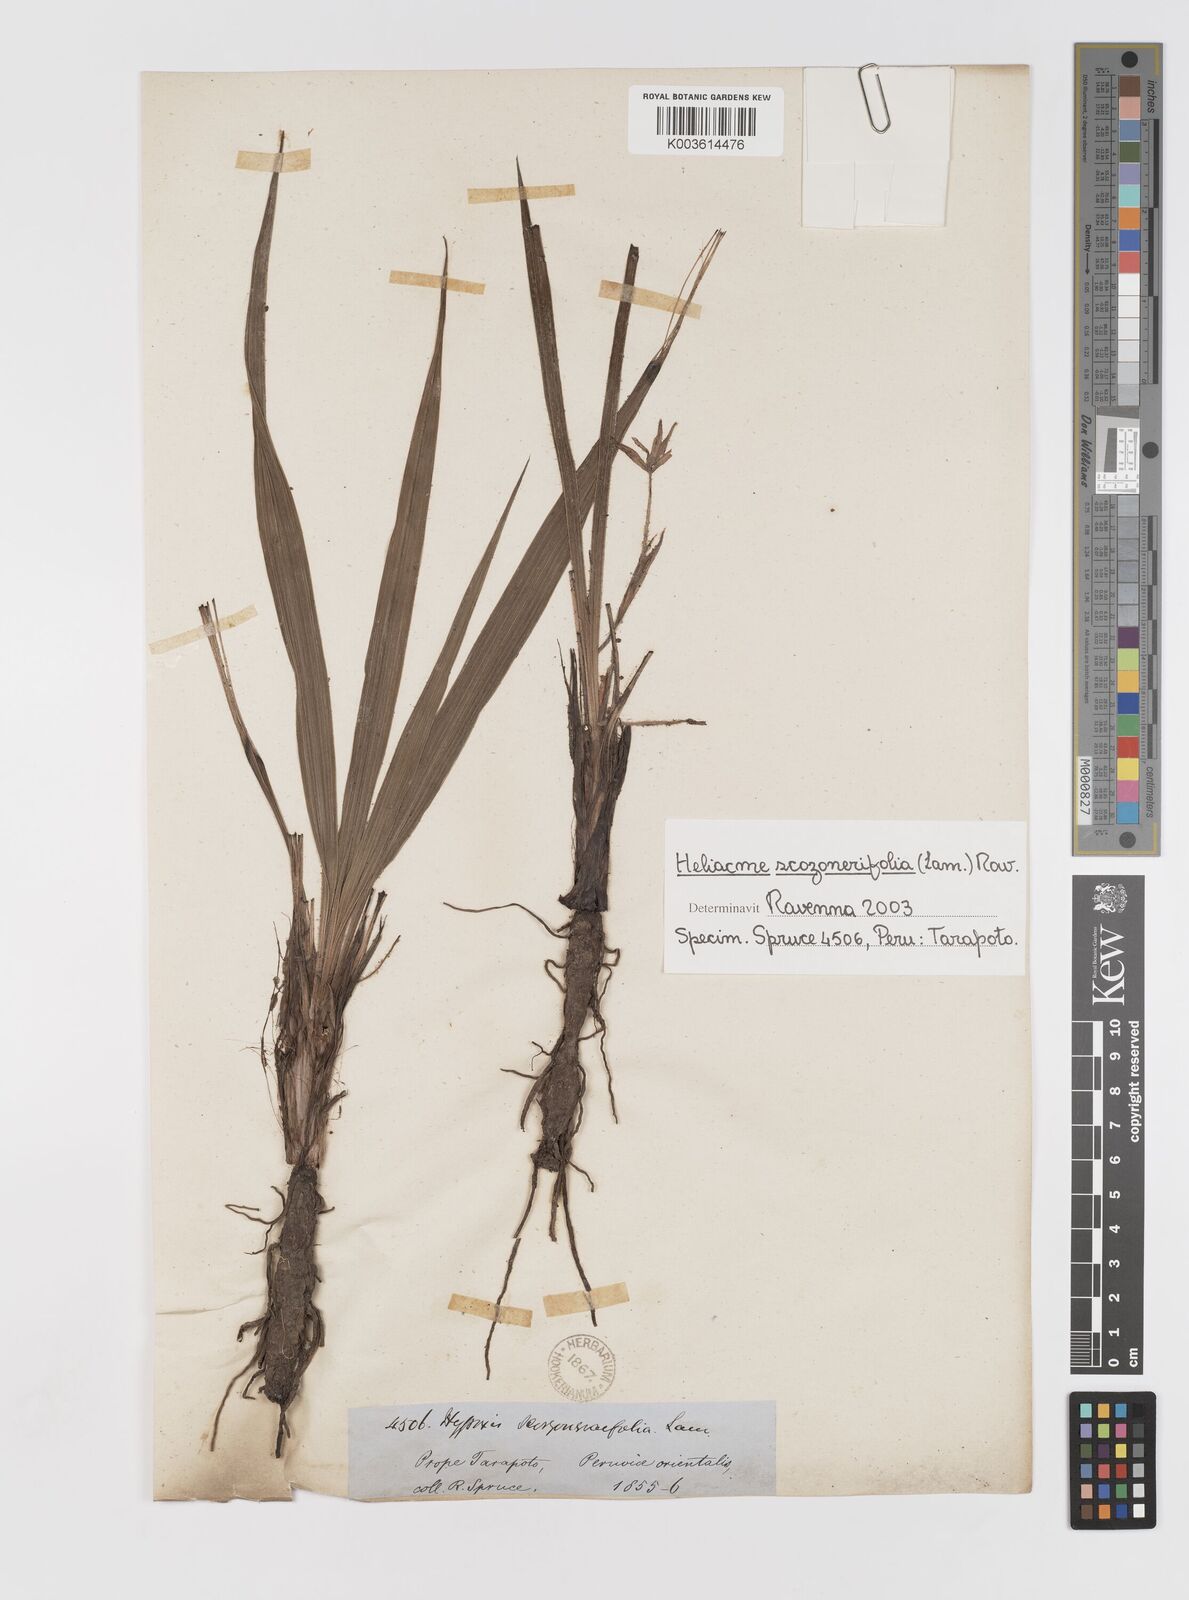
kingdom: Plantae
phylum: Tracheophyta
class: Liliopsida
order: Asparagales
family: Hypoxidaceae
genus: Curculigo
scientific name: Curculigo scorzonerifolia
